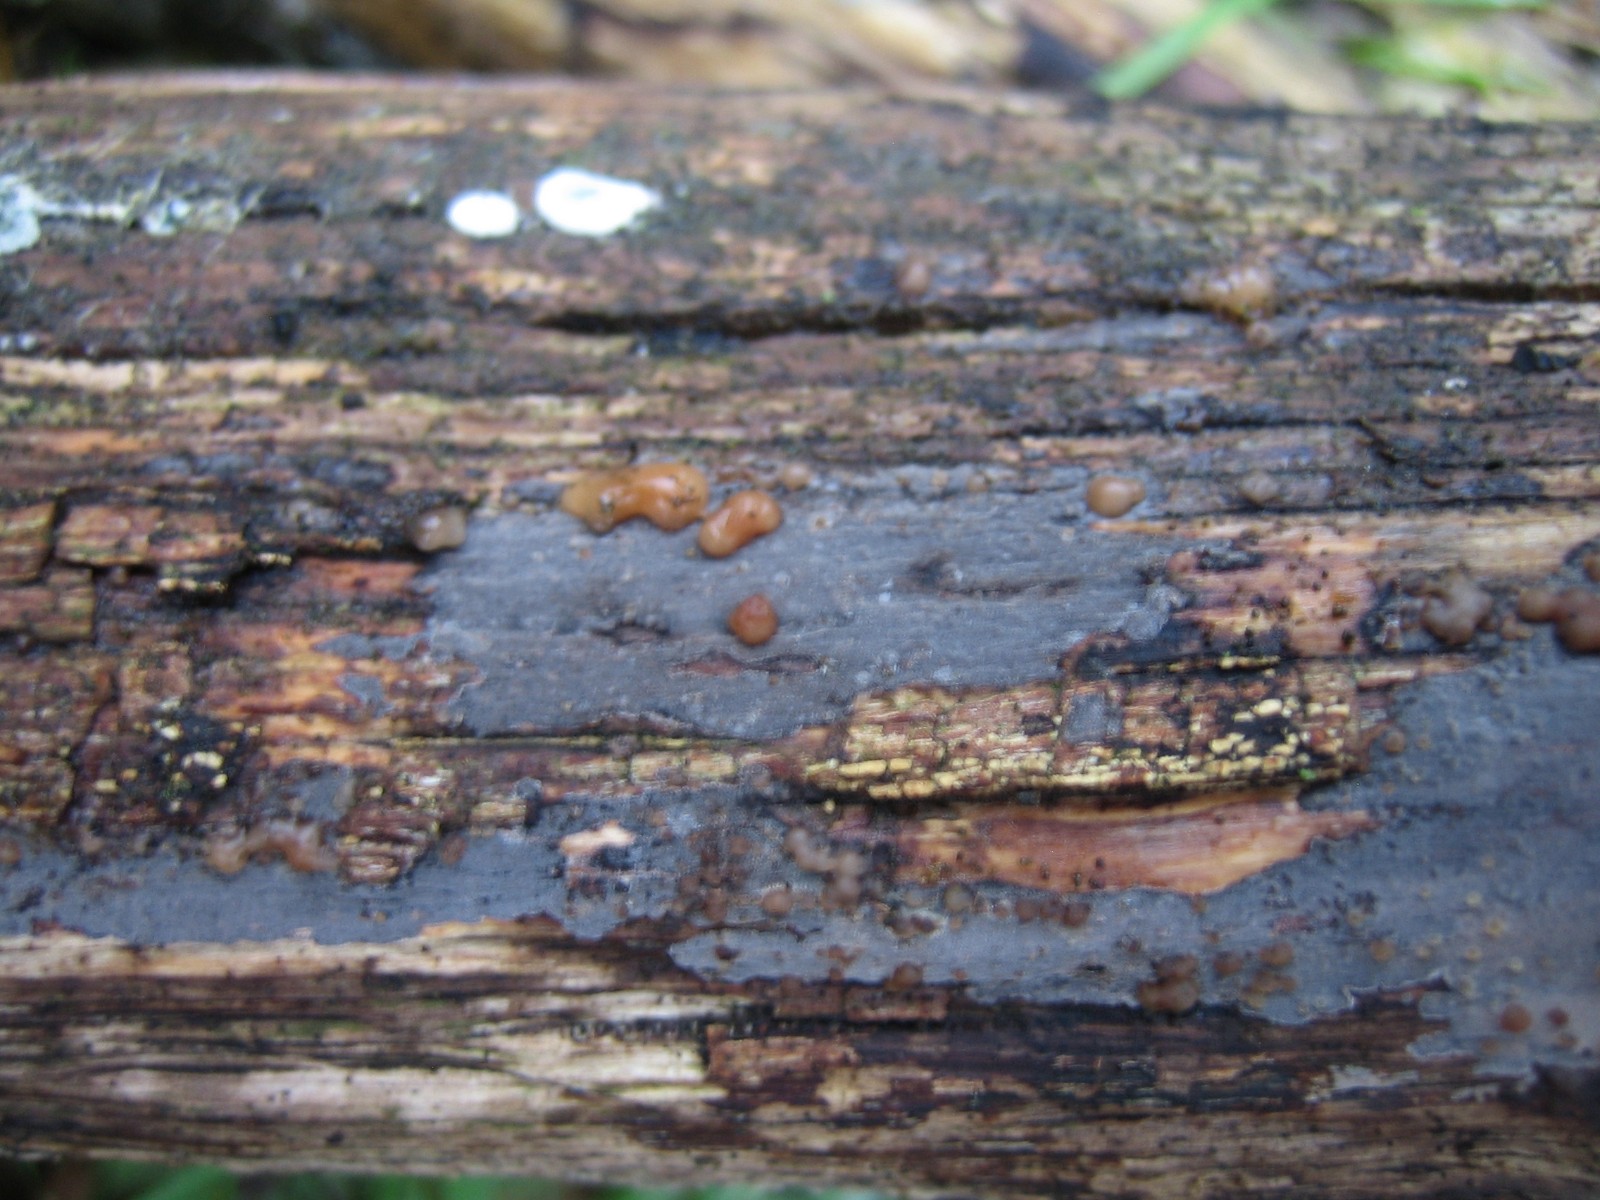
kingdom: Fungi
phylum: Basidiomycota
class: Tremellomycetes
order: Tremellales
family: Tremellaceae
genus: Tremella
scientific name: Tremella versicolor
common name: voksskind-bævresvamp
